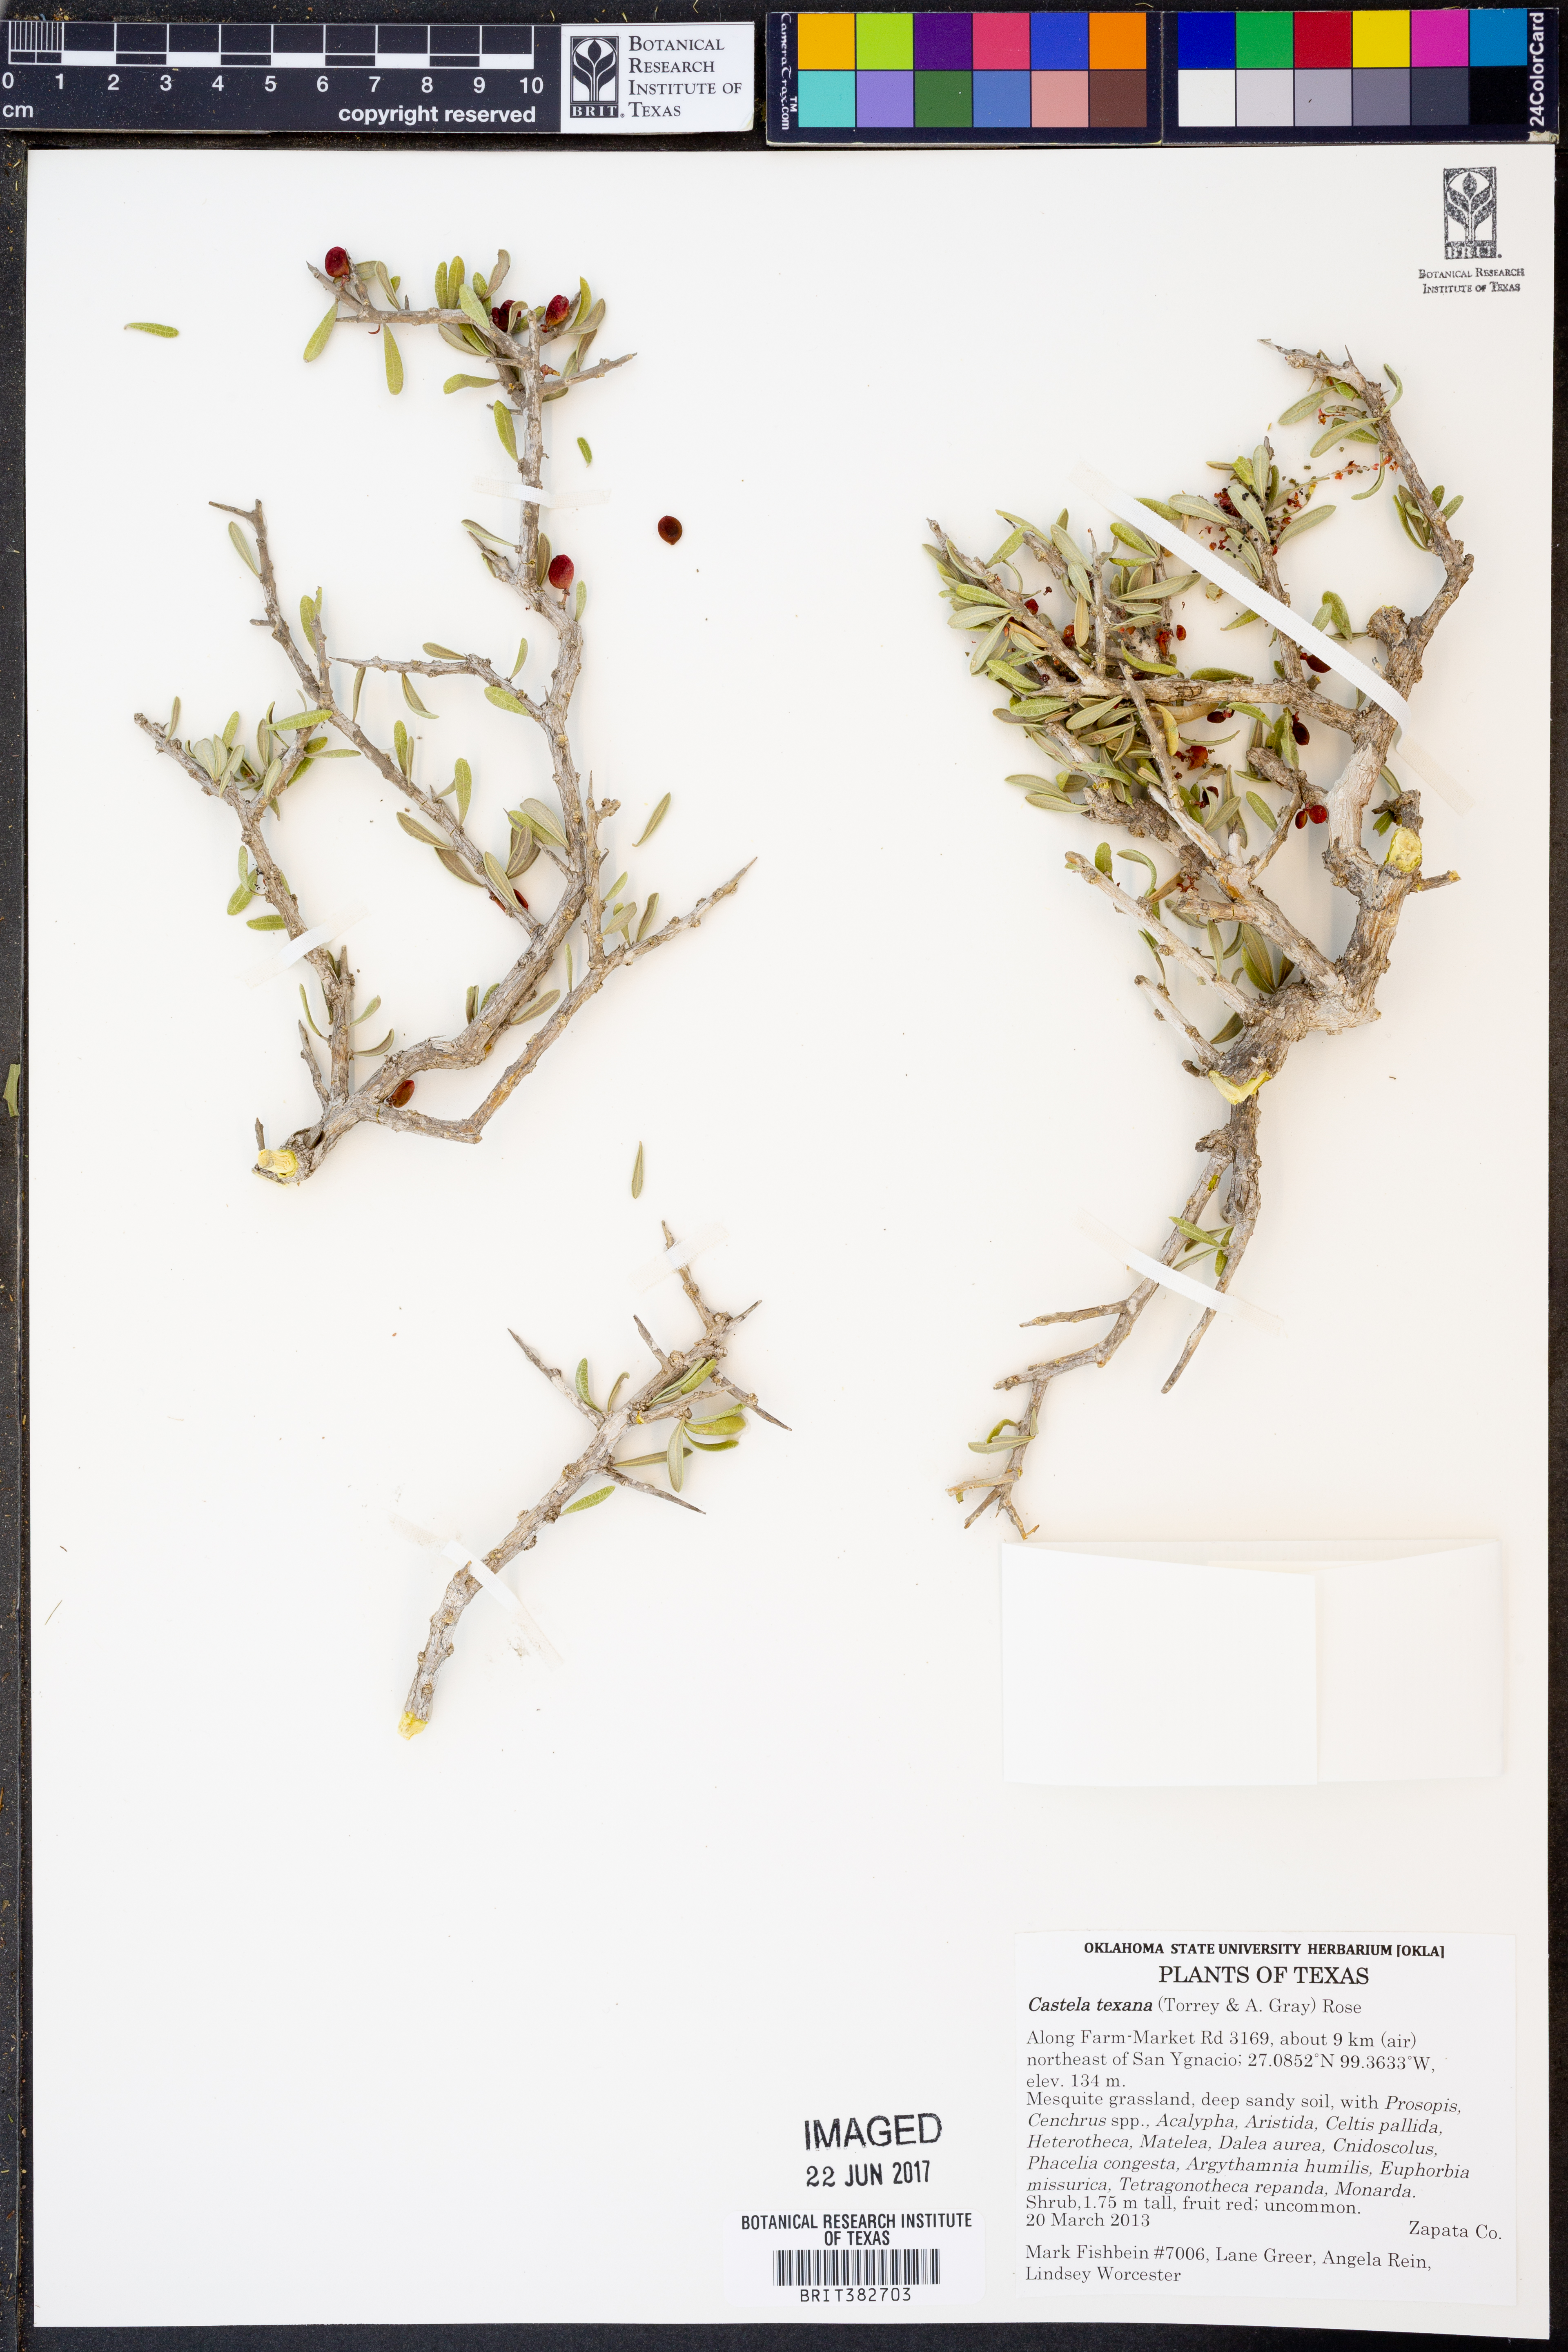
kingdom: Plantae
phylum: Tracheophyta
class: Magnoliopsida
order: Sapindales
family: Simaroubaceae
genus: Castela
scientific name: Castela tortuosa
